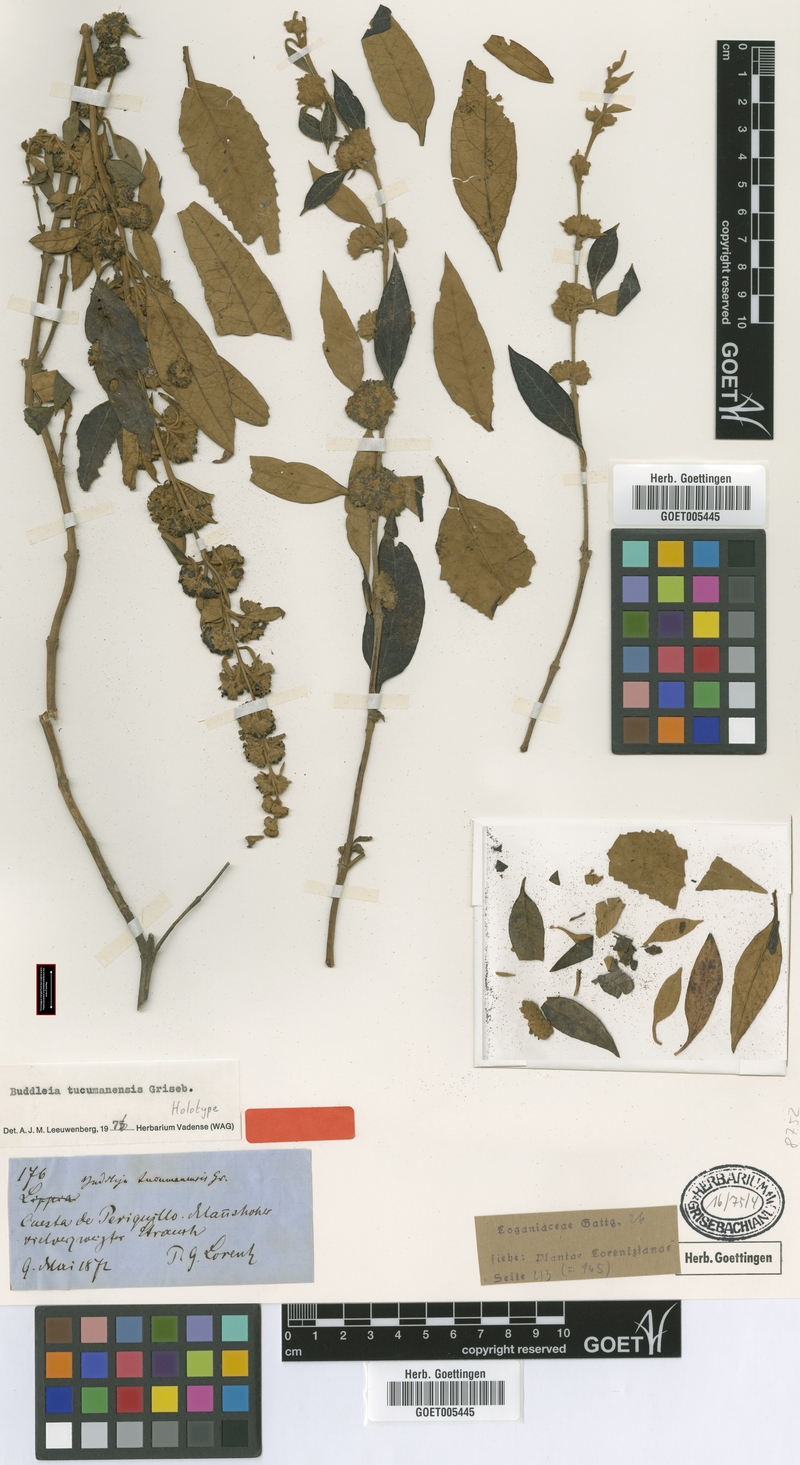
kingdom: Plantae
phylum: Tracheophyta
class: Magnoliopsida
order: Lamiales
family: Scrophulariaceae
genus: Buddleja
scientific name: Buddleja tucumanensis
